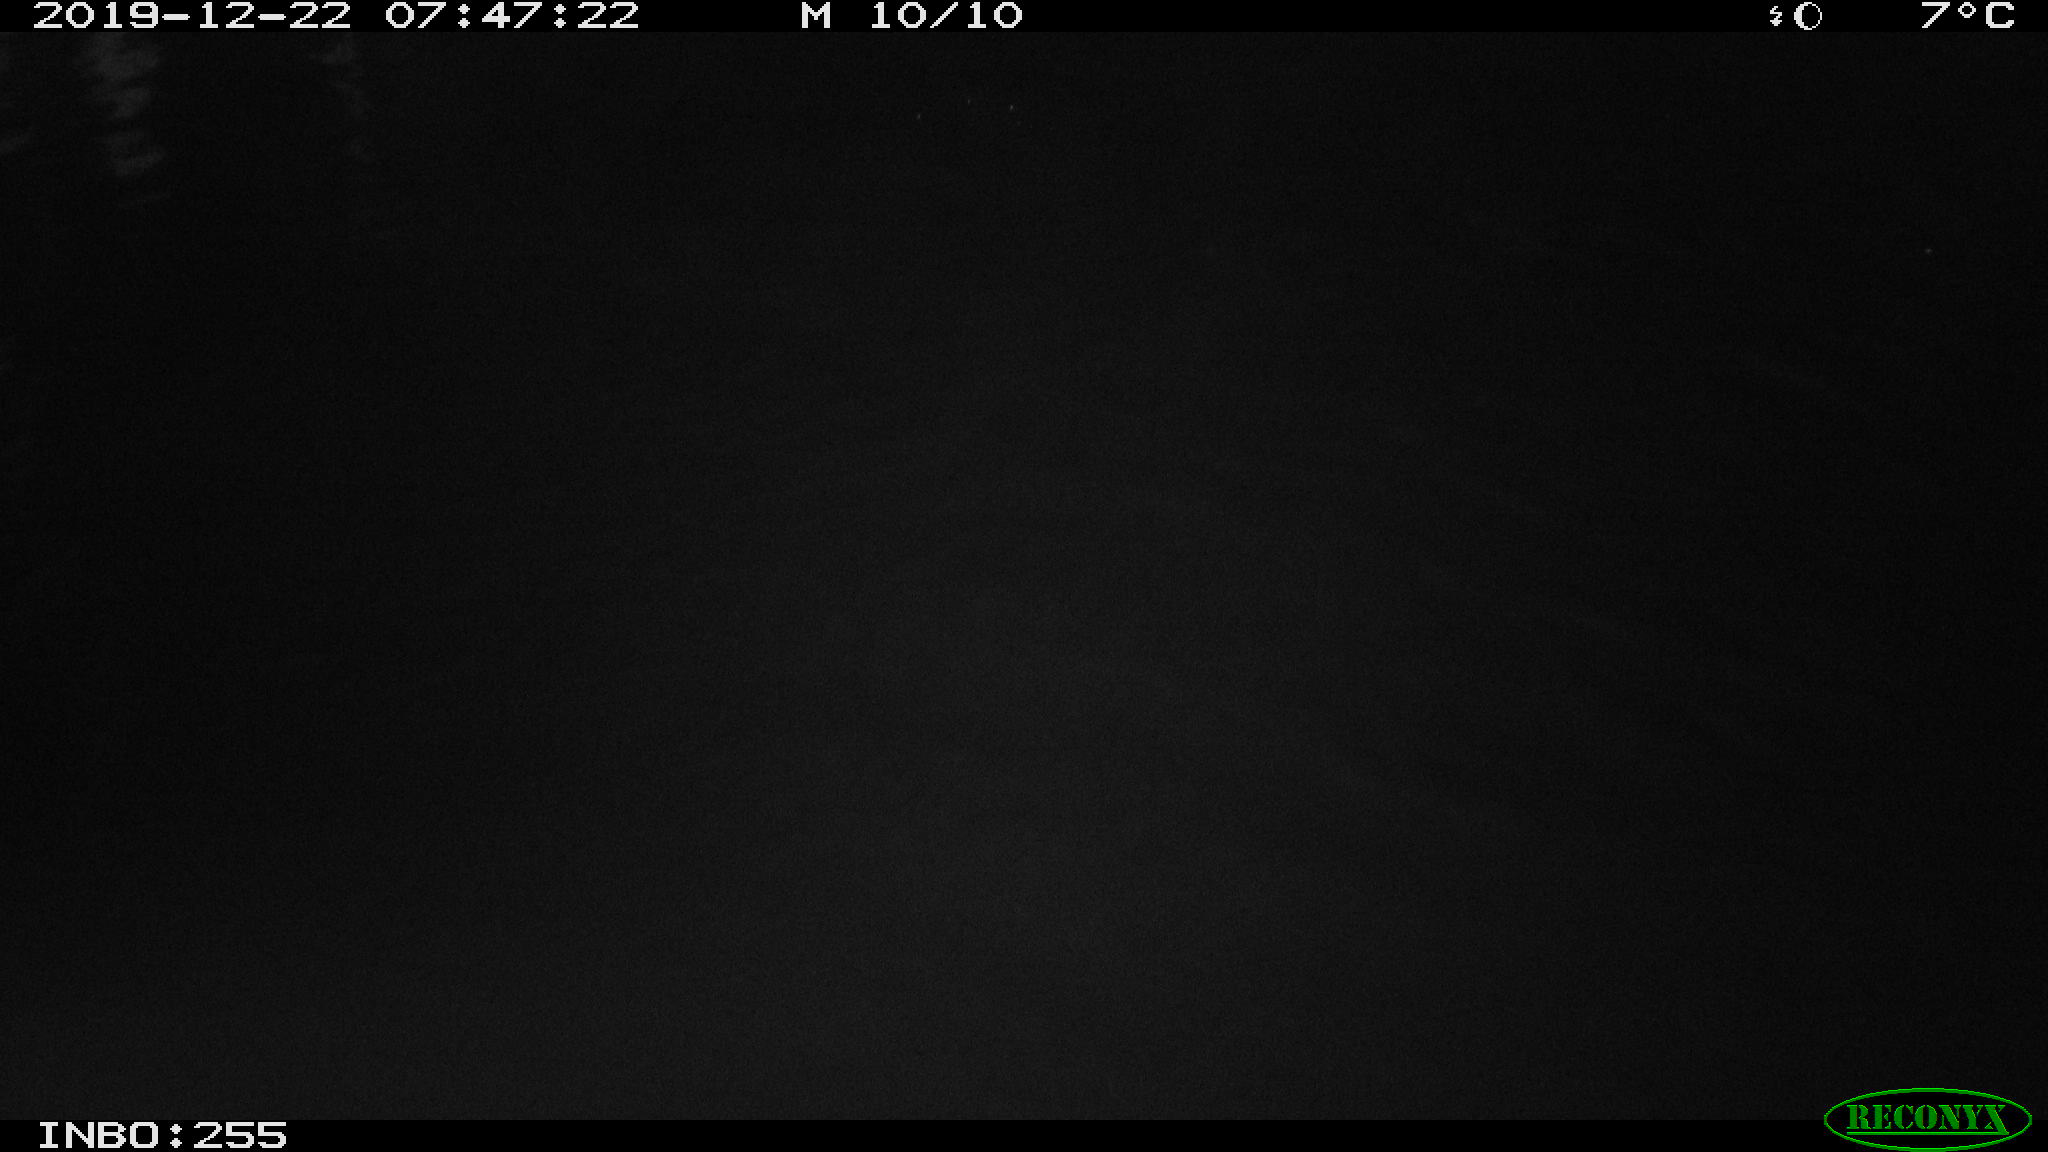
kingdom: Animalia
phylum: Chordata
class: Aves
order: Gruiformes
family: Rallidae
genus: Gallinula
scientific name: Gallinula chloropus
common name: Common moorhen
